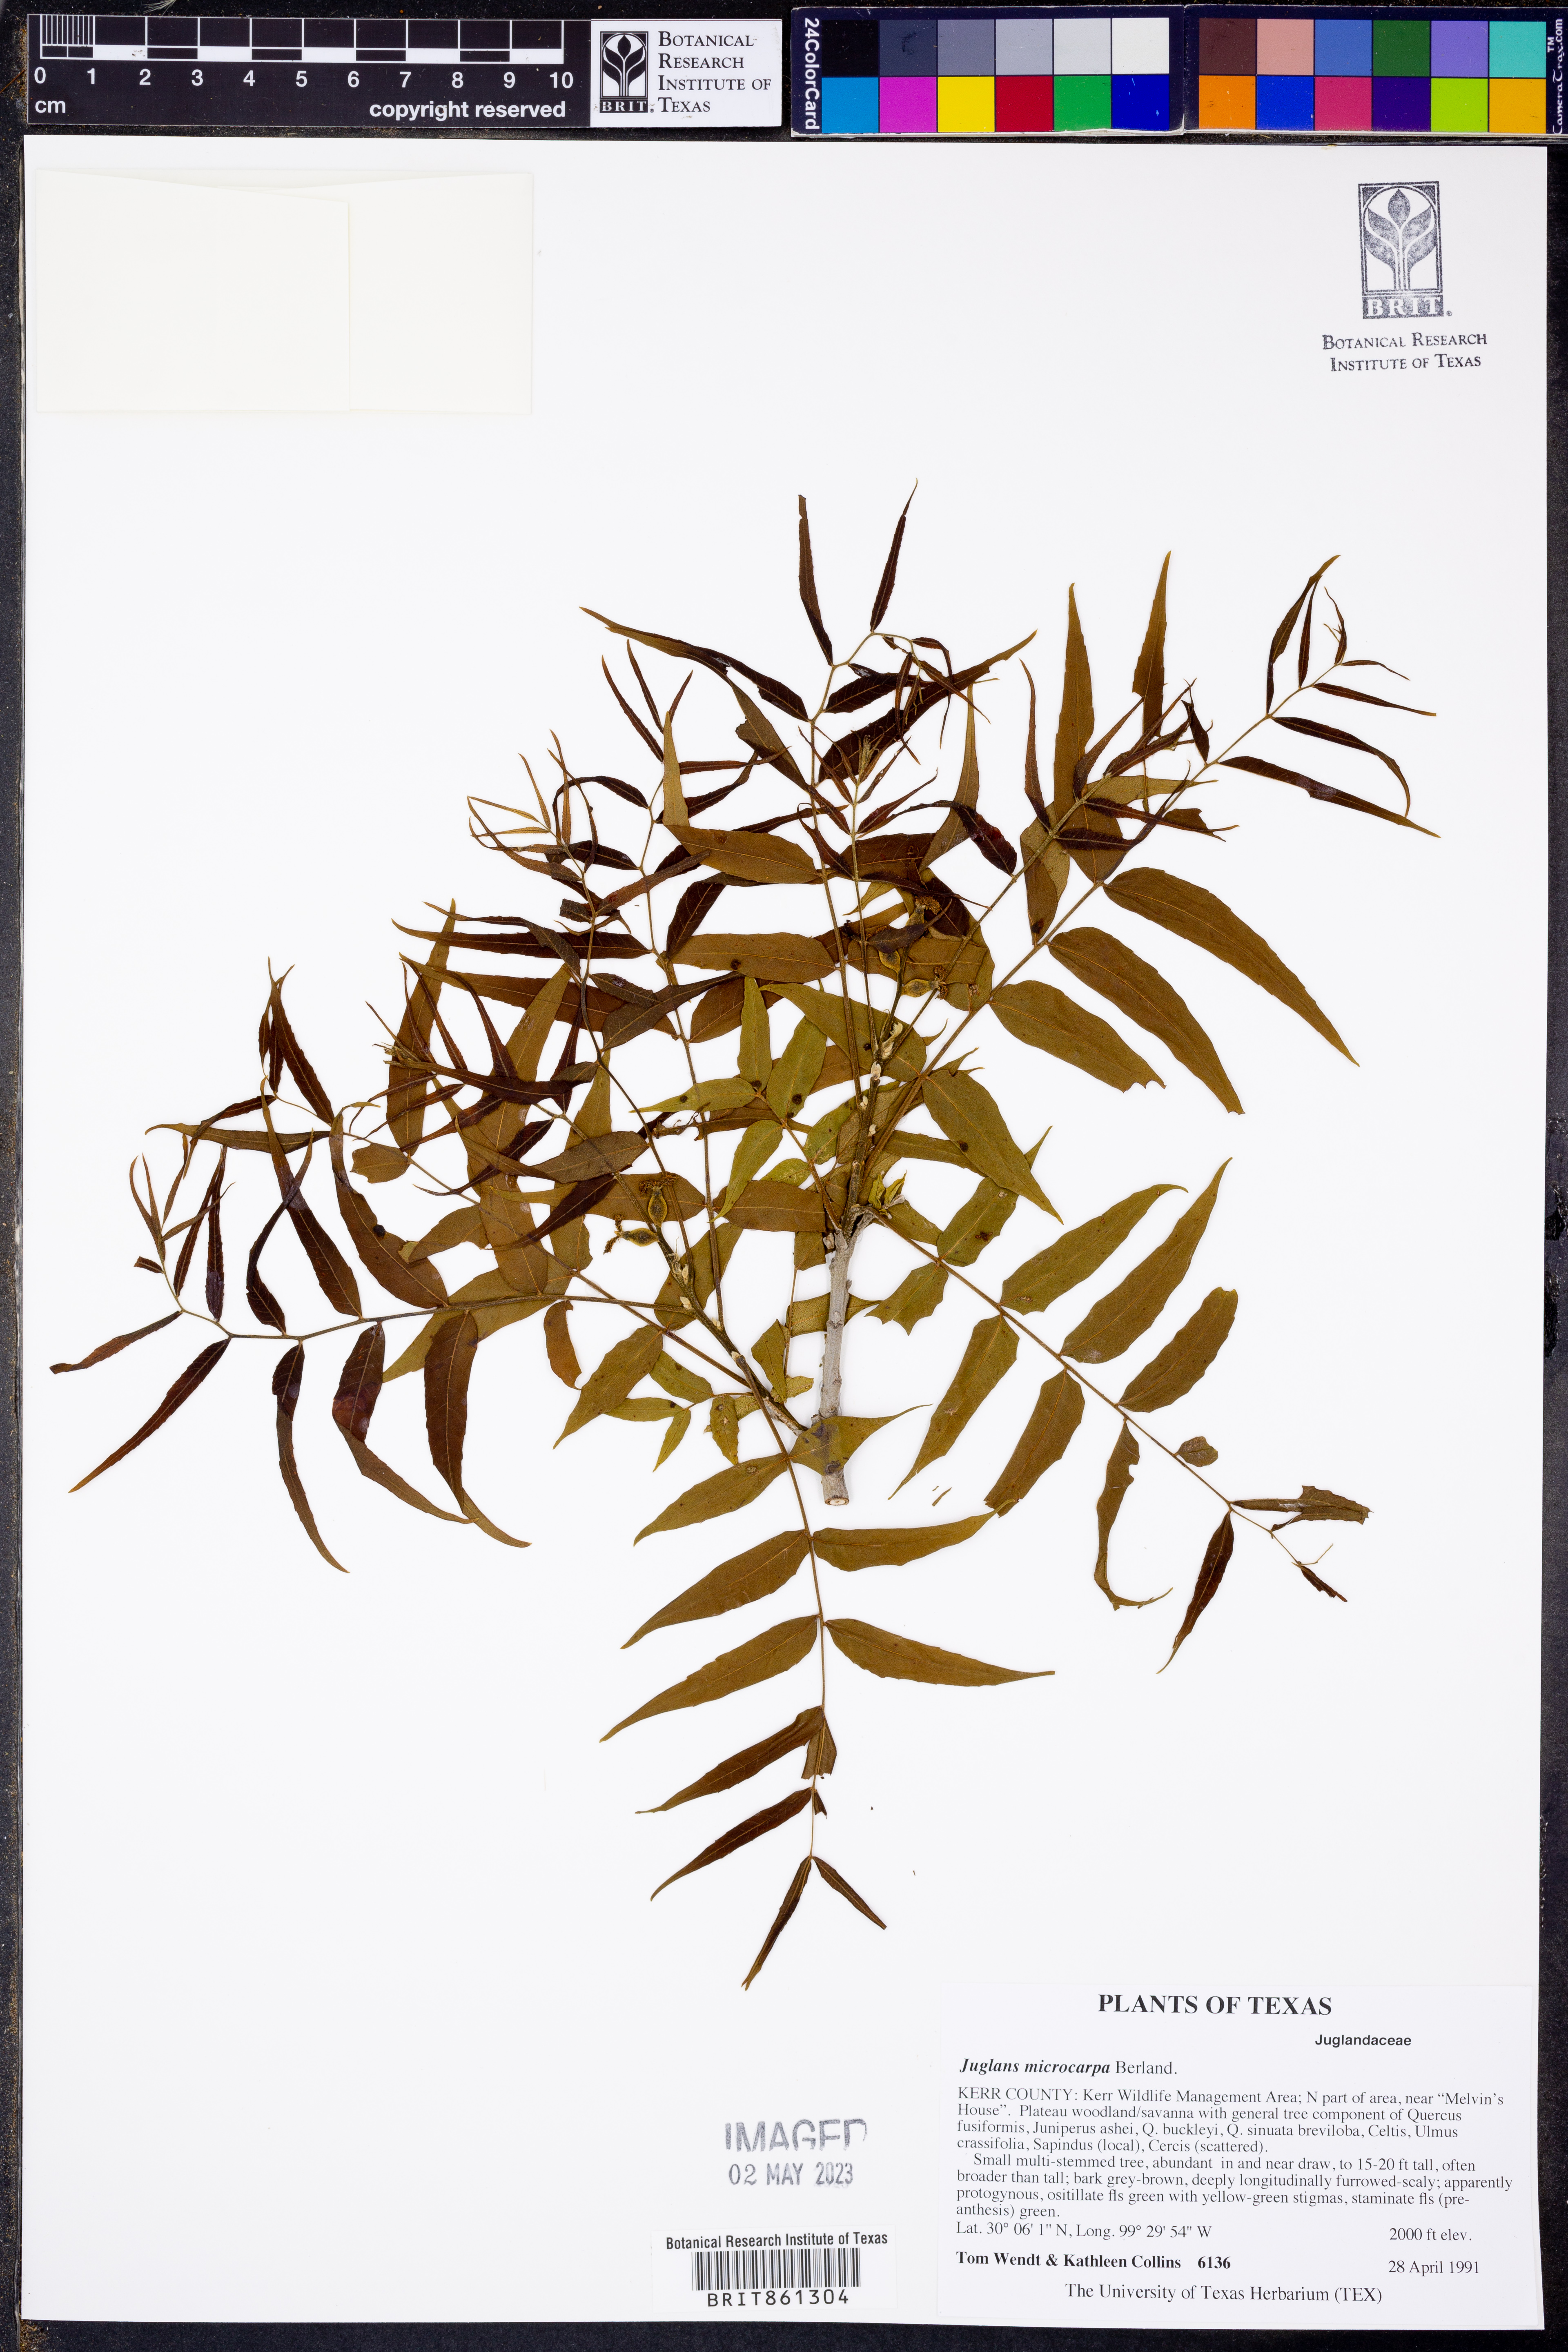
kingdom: Plantae
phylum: Tracheophyta
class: Magnoliopsida
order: Fagales
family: Juglandaceae
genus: Juglans
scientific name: Juglans microcarpa
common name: Texas walnut
